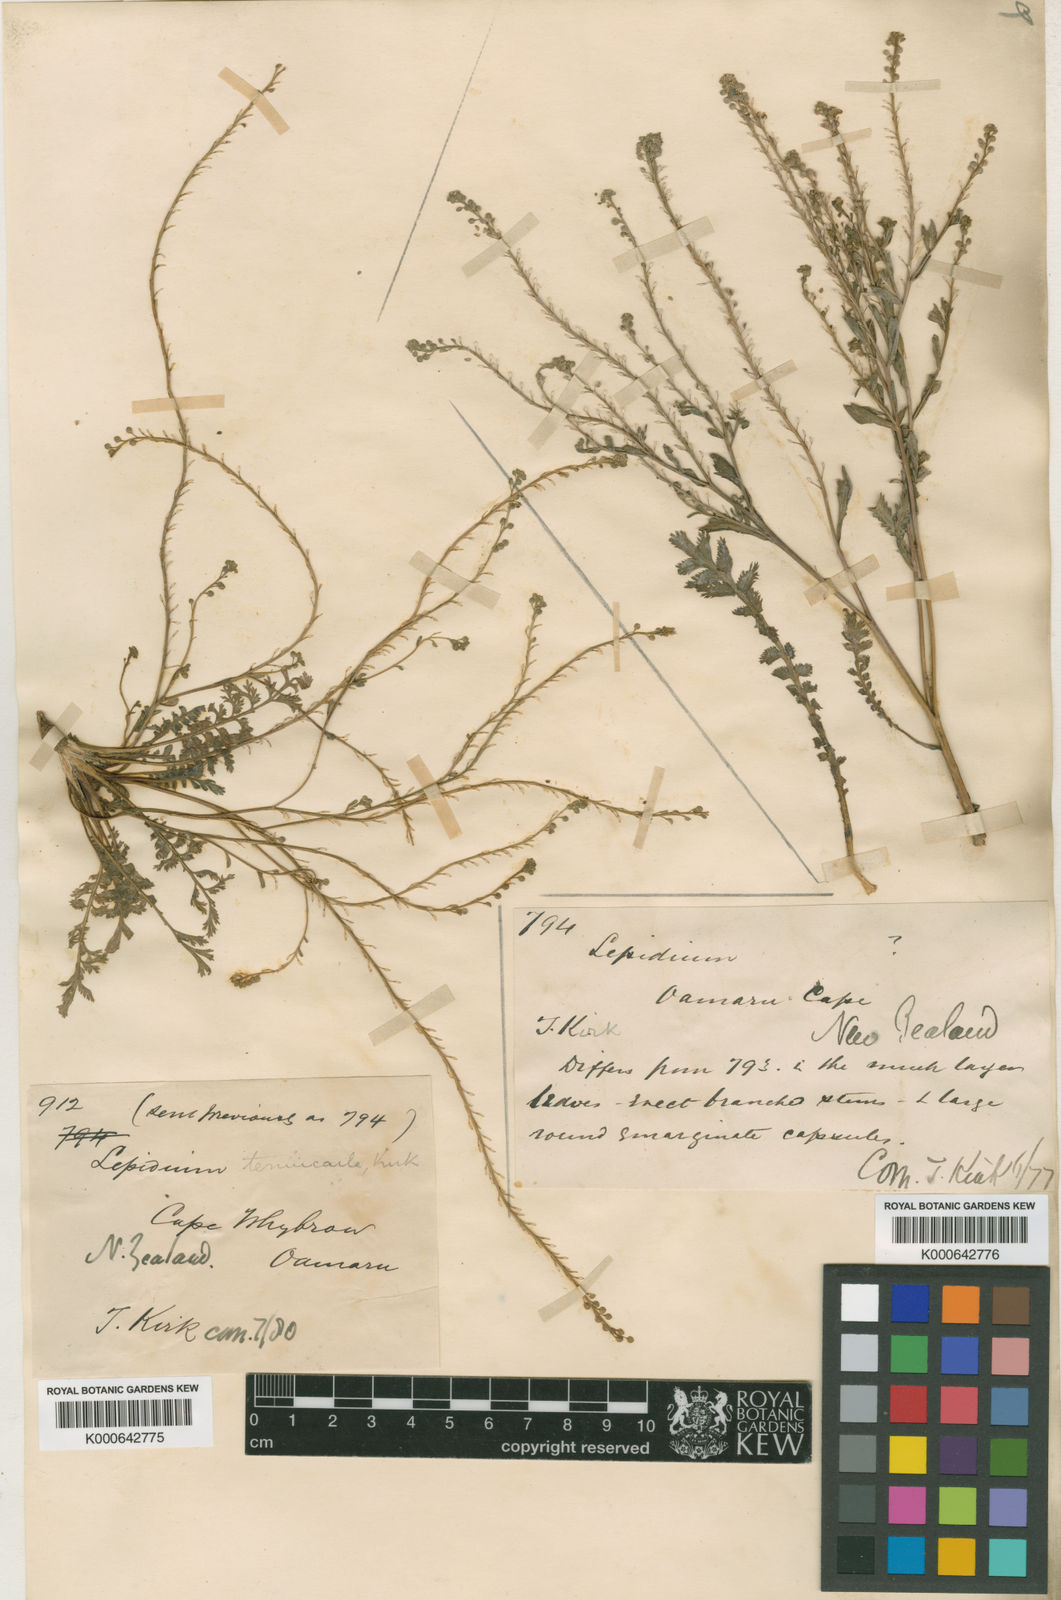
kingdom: Plantae
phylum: Tracheophyta
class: Magnoliopsida
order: Brassicales
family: Brassicaceae
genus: Lepidium
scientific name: Lepidium tenuicaule
